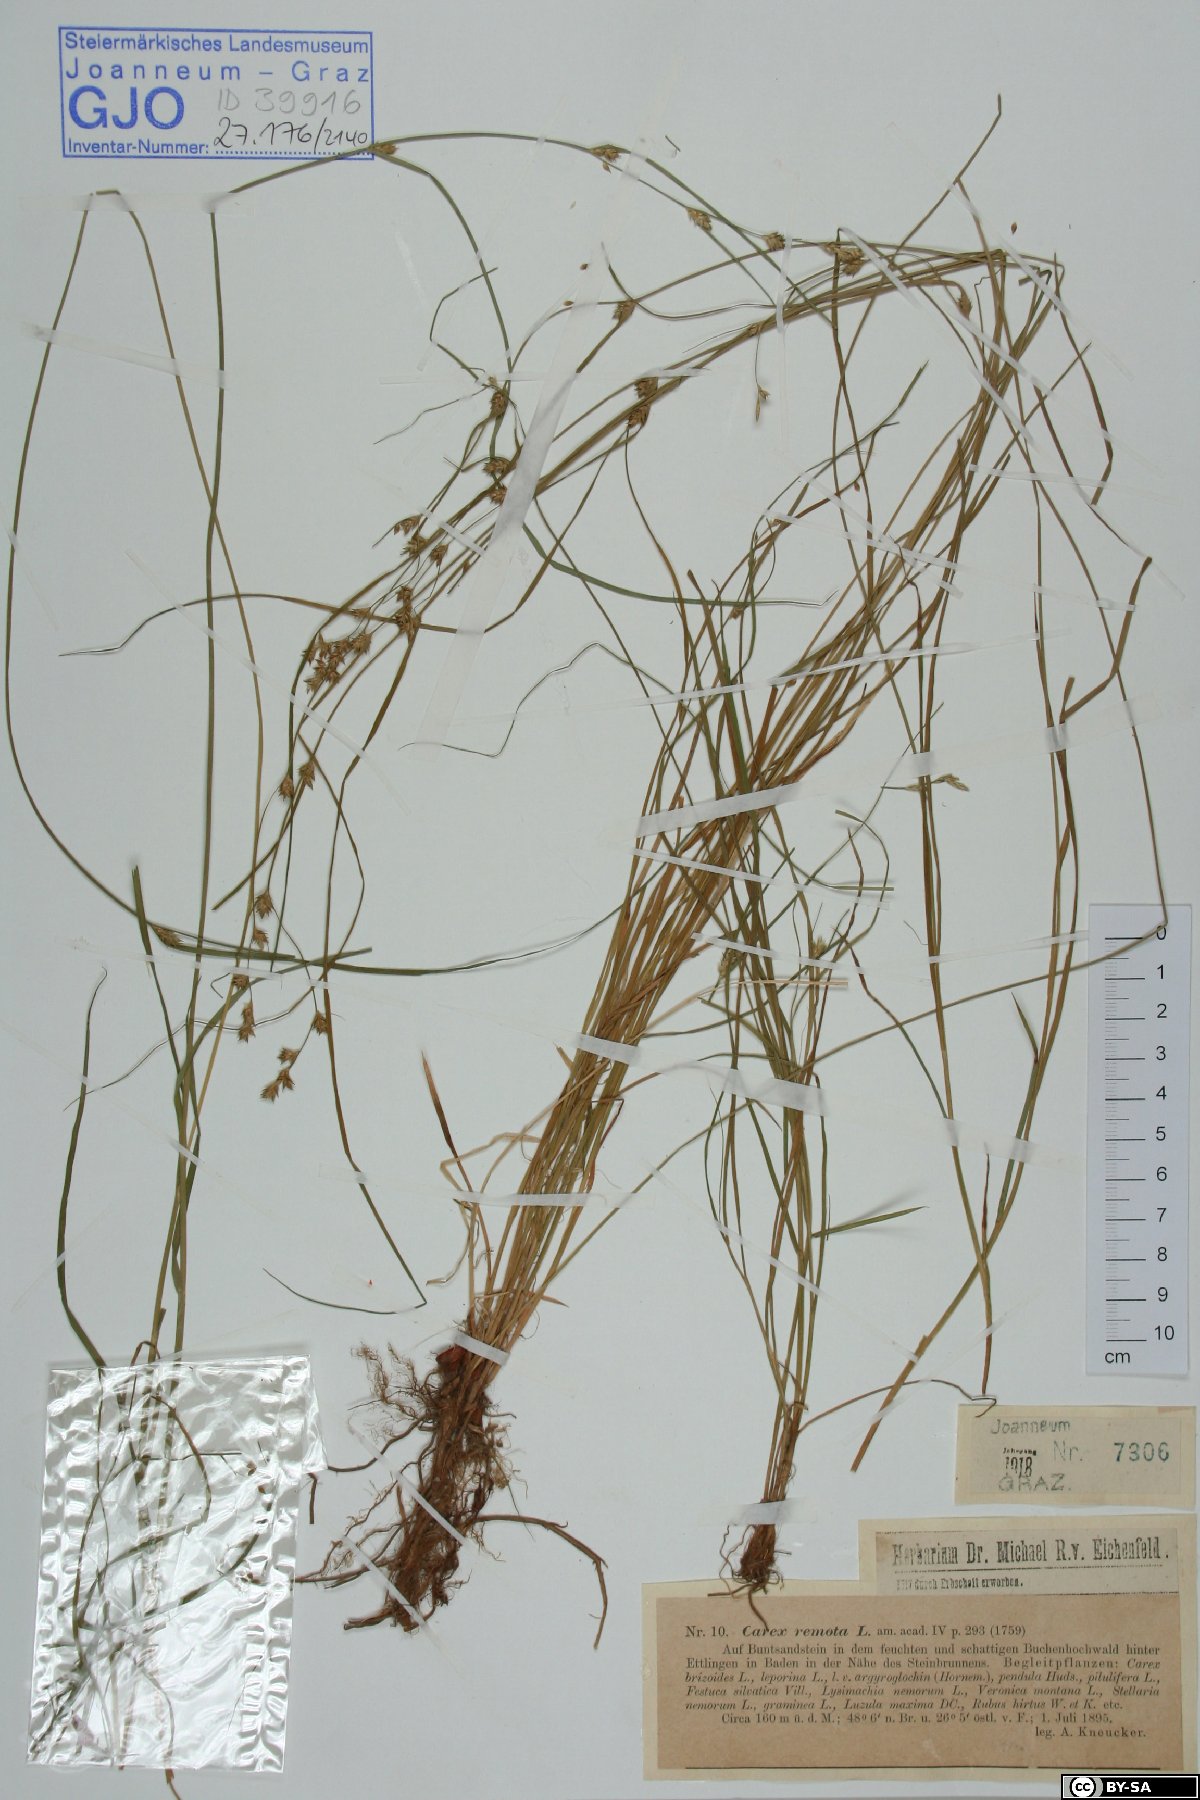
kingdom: Plantae
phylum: Tracheophyta
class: Liliopsida
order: Poales
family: Cyperaceae
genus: Carex
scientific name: Carex remota
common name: Remote sedge
